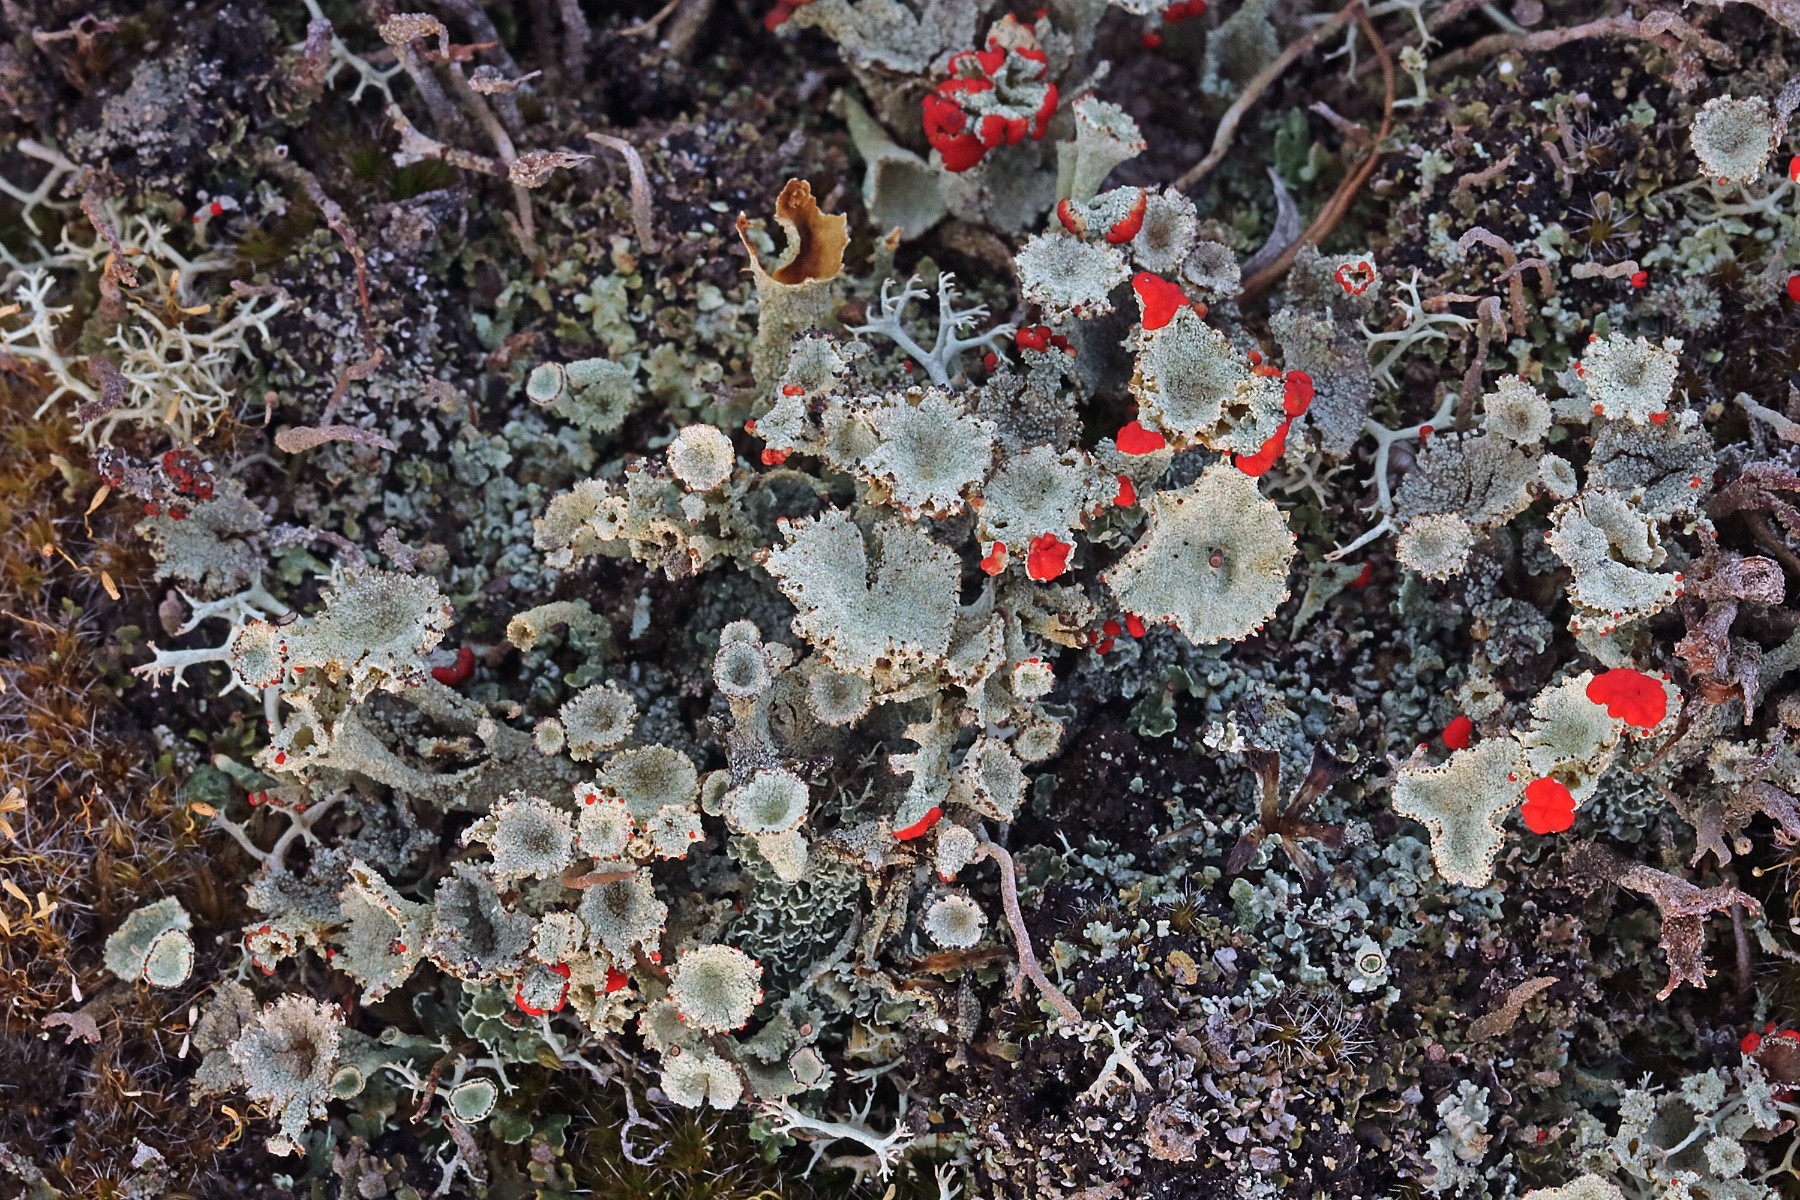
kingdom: Fungi
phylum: Ascomycota
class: Lecanoromycetes
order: Lecanorales
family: Cladoniaceae
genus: Cladonia
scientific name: Cladonia diversa
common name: rød bægerlav
